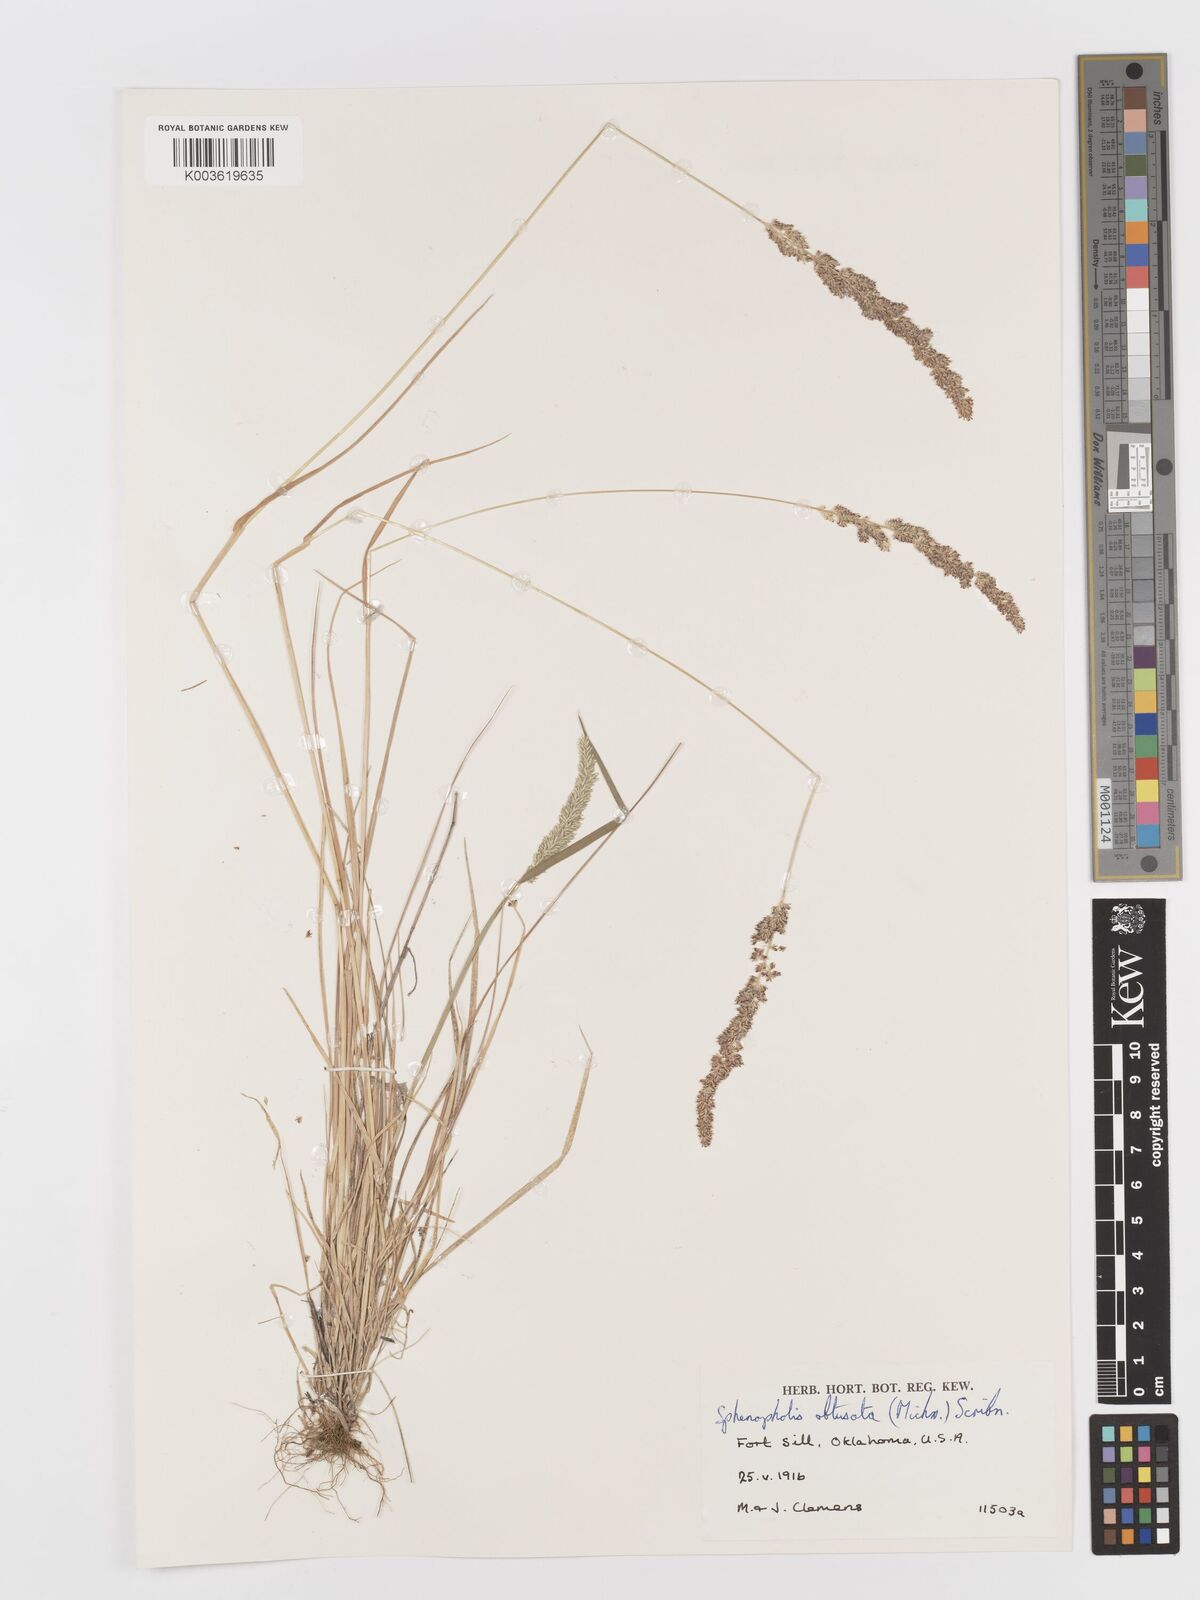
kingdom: Plantae
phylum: Tracheophyta
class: Liliopsida
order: Poales
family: Poaceae
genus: Sphenopholis
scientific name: Sphenopholis obtusata
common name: Prairie grass
